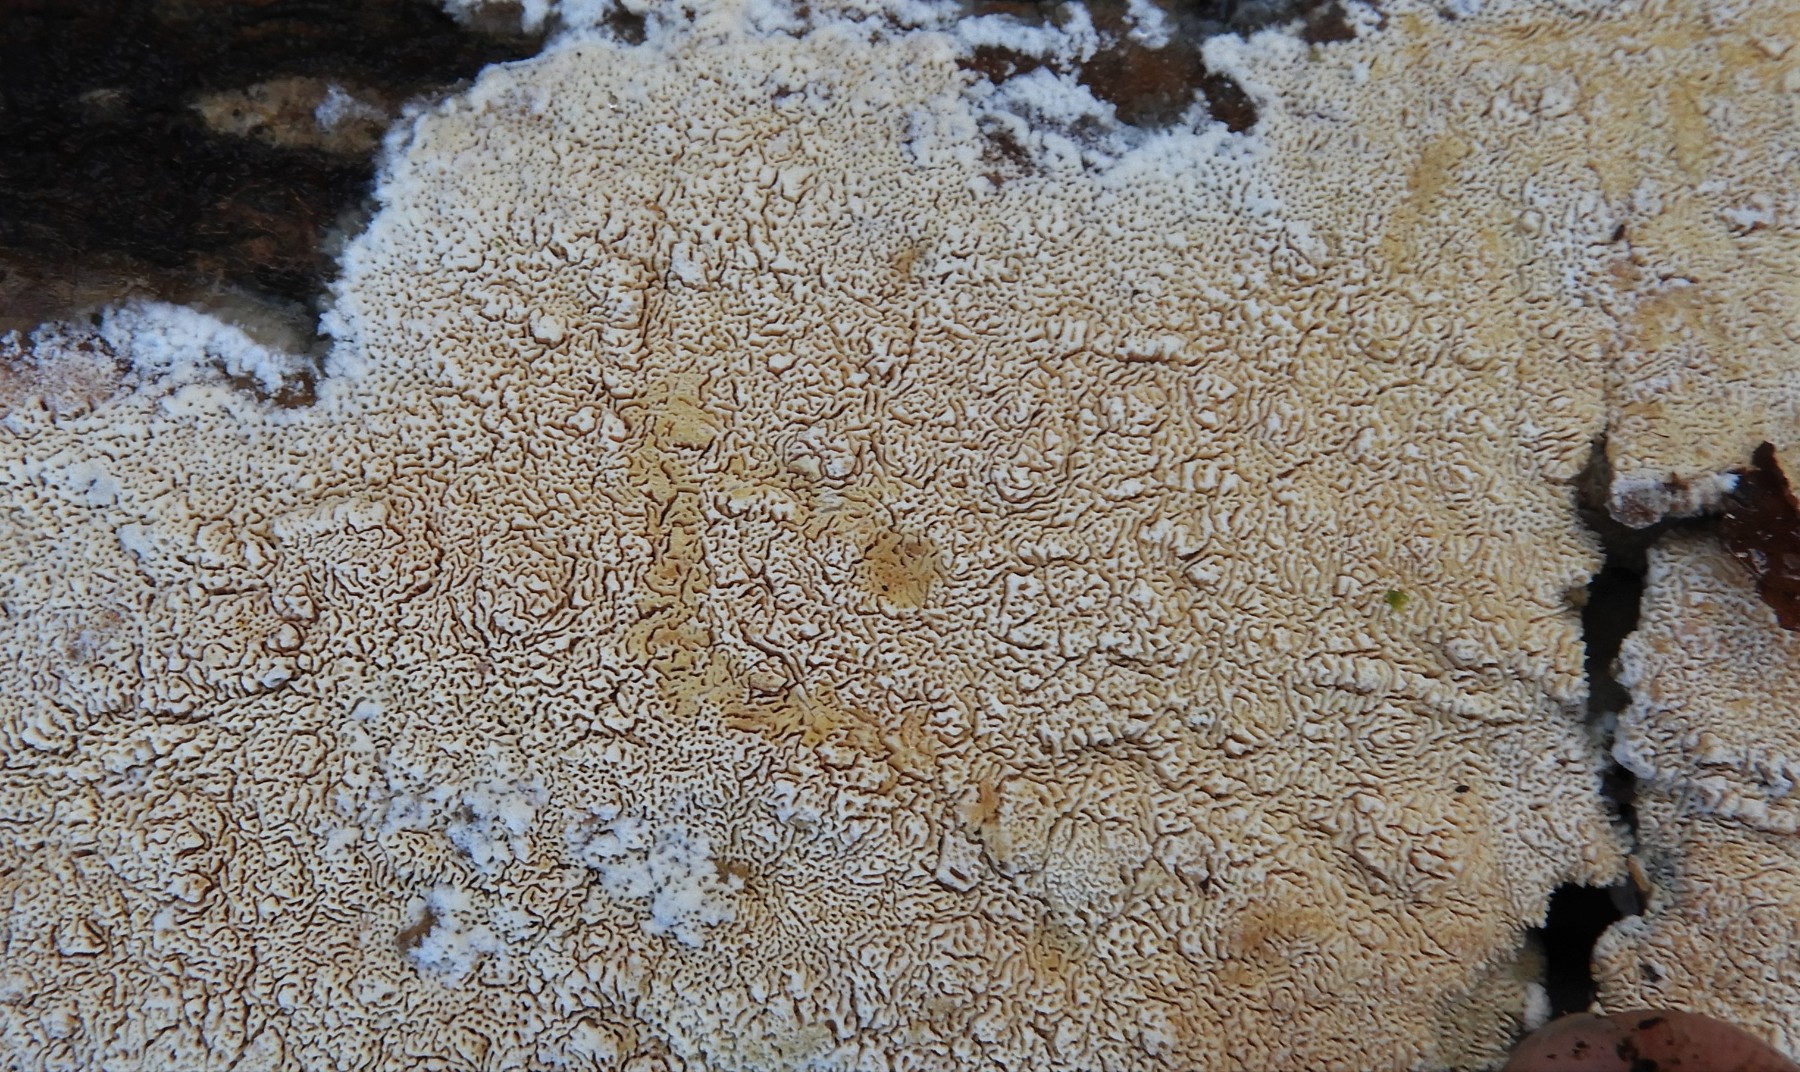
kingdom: Fungi
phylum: Basidiomycota
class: Agaricomycetes
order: Hymenochaetales
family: Schizoporaceae
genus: Xylodon
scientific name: Xylodon
